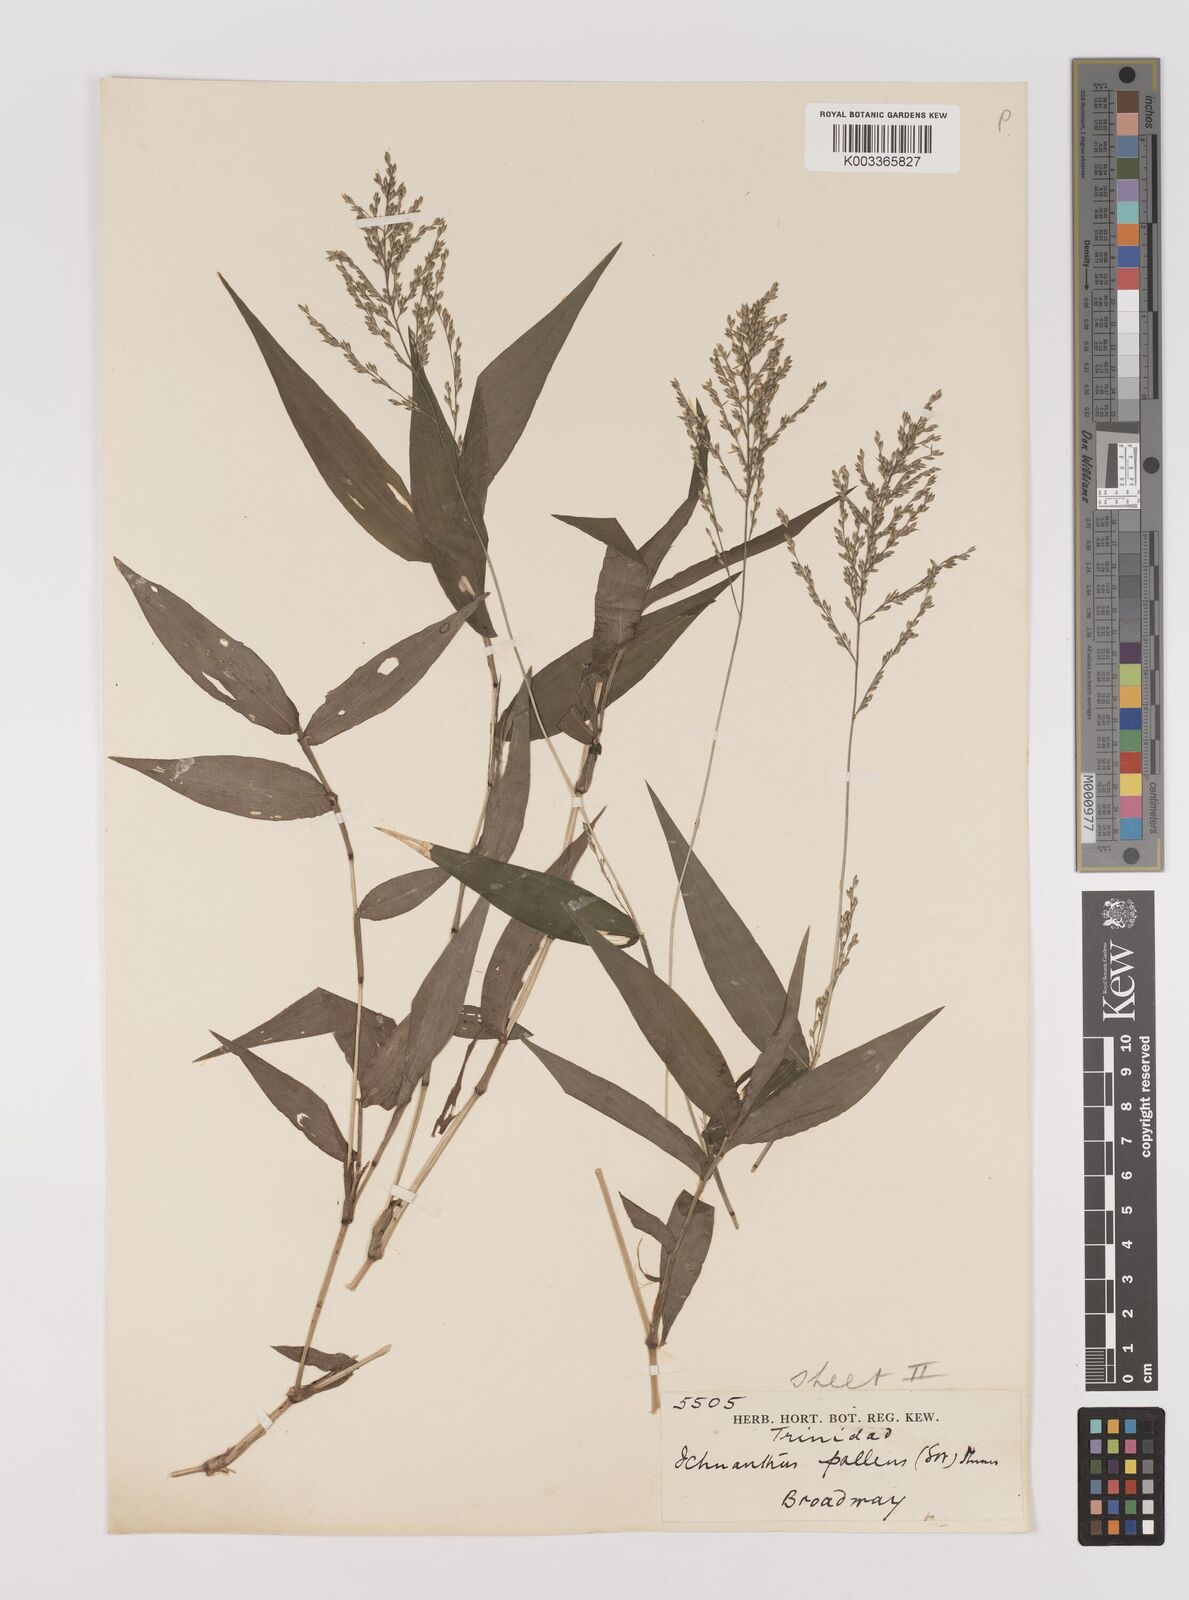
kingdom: Plantae
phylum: Tracheophyta
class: Liliopsida
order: Poales
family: Poaceae
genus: Ichnanthus
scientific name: Ichnanthus pallens
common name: Water grass
